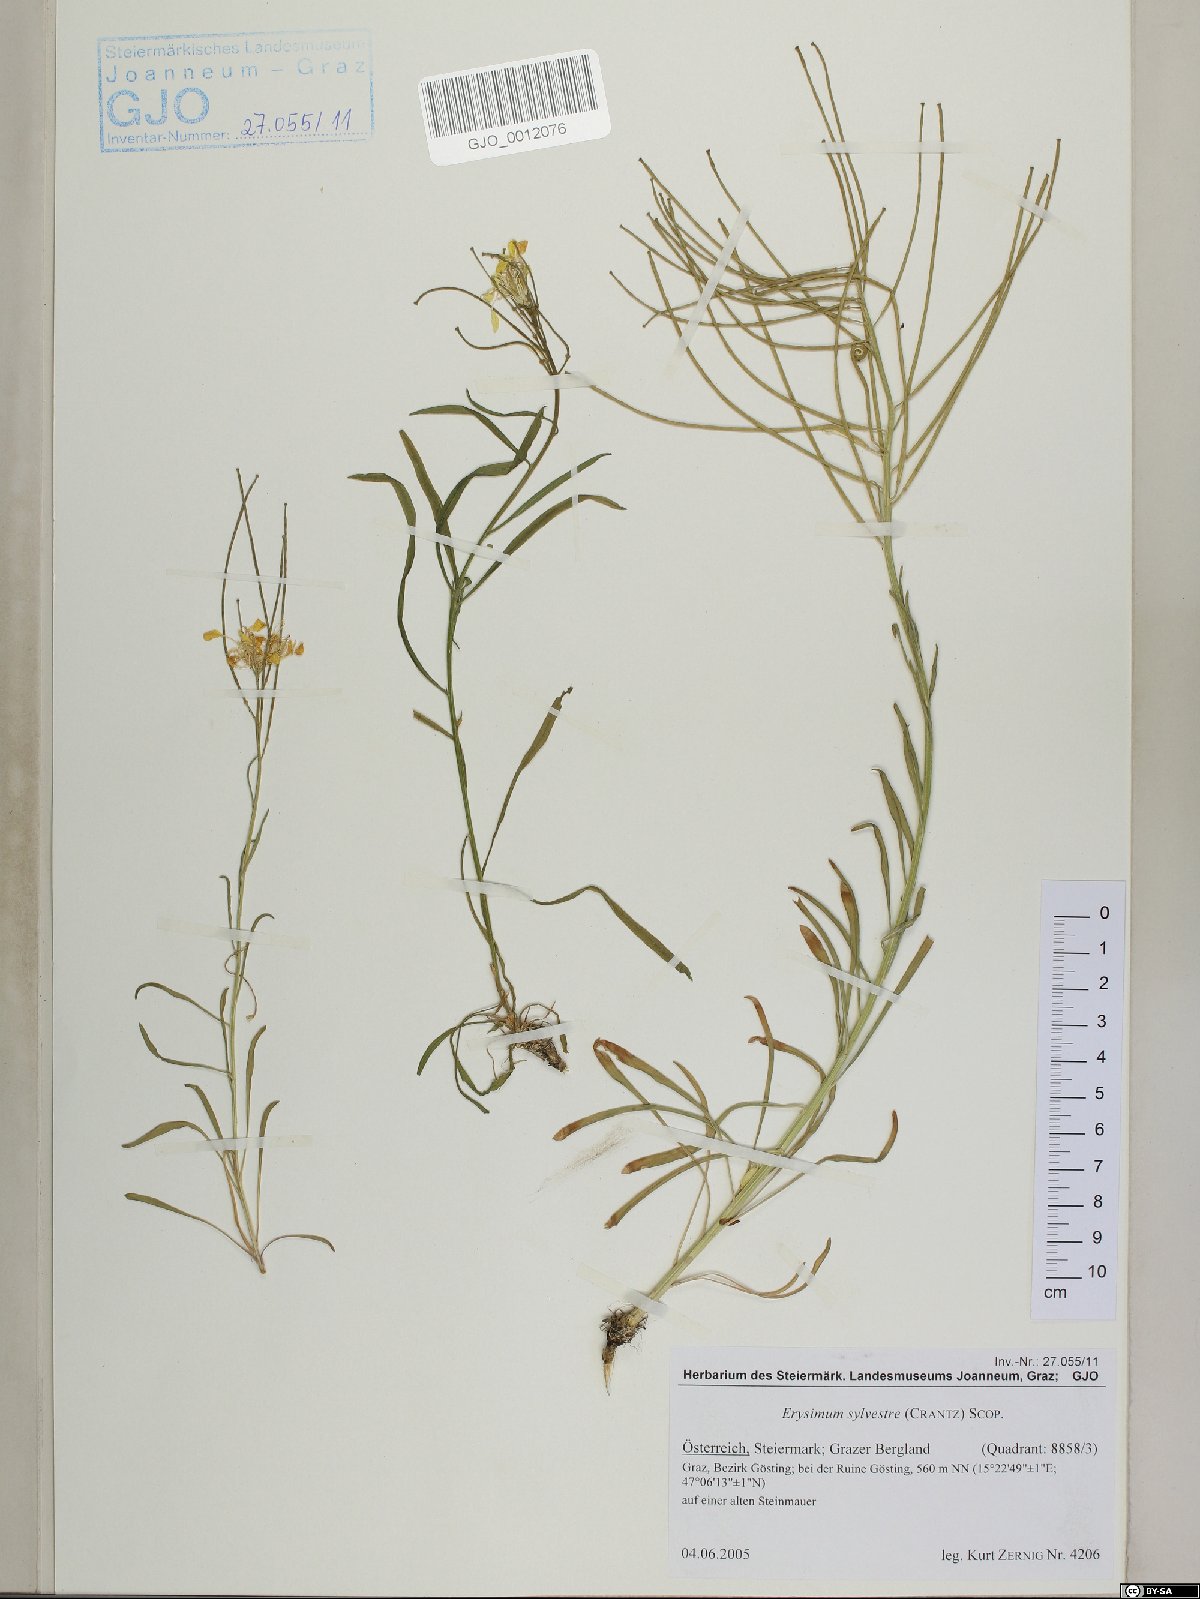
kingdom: Plantae
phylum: Tracheophyta
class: Magnoliopsida
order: Brassicales
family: Brassicaceae
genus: Erysimum
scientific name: Erysimum sylvestre
